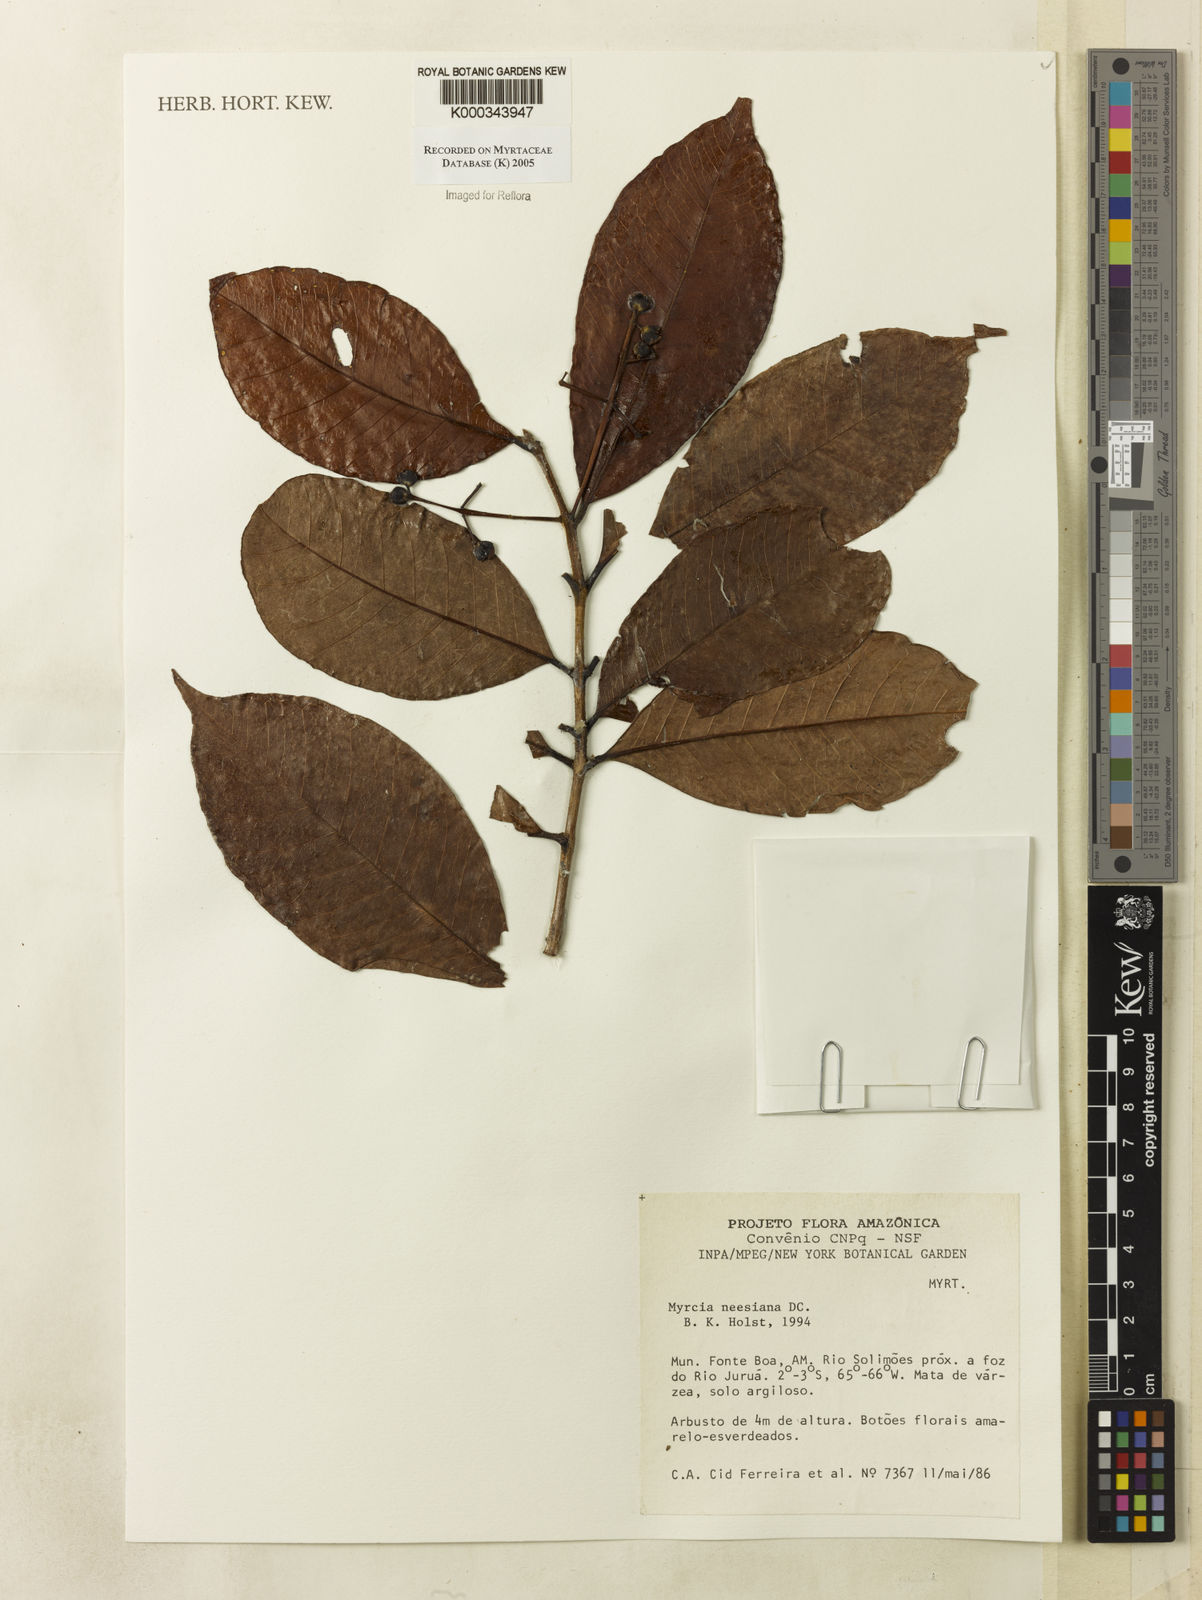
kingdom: Plantae
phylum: Tracheophyta
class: Magnoliopsida
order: Myrtales
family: Myrtaceae
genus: Myrcia
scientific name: Myrcia neesiana
